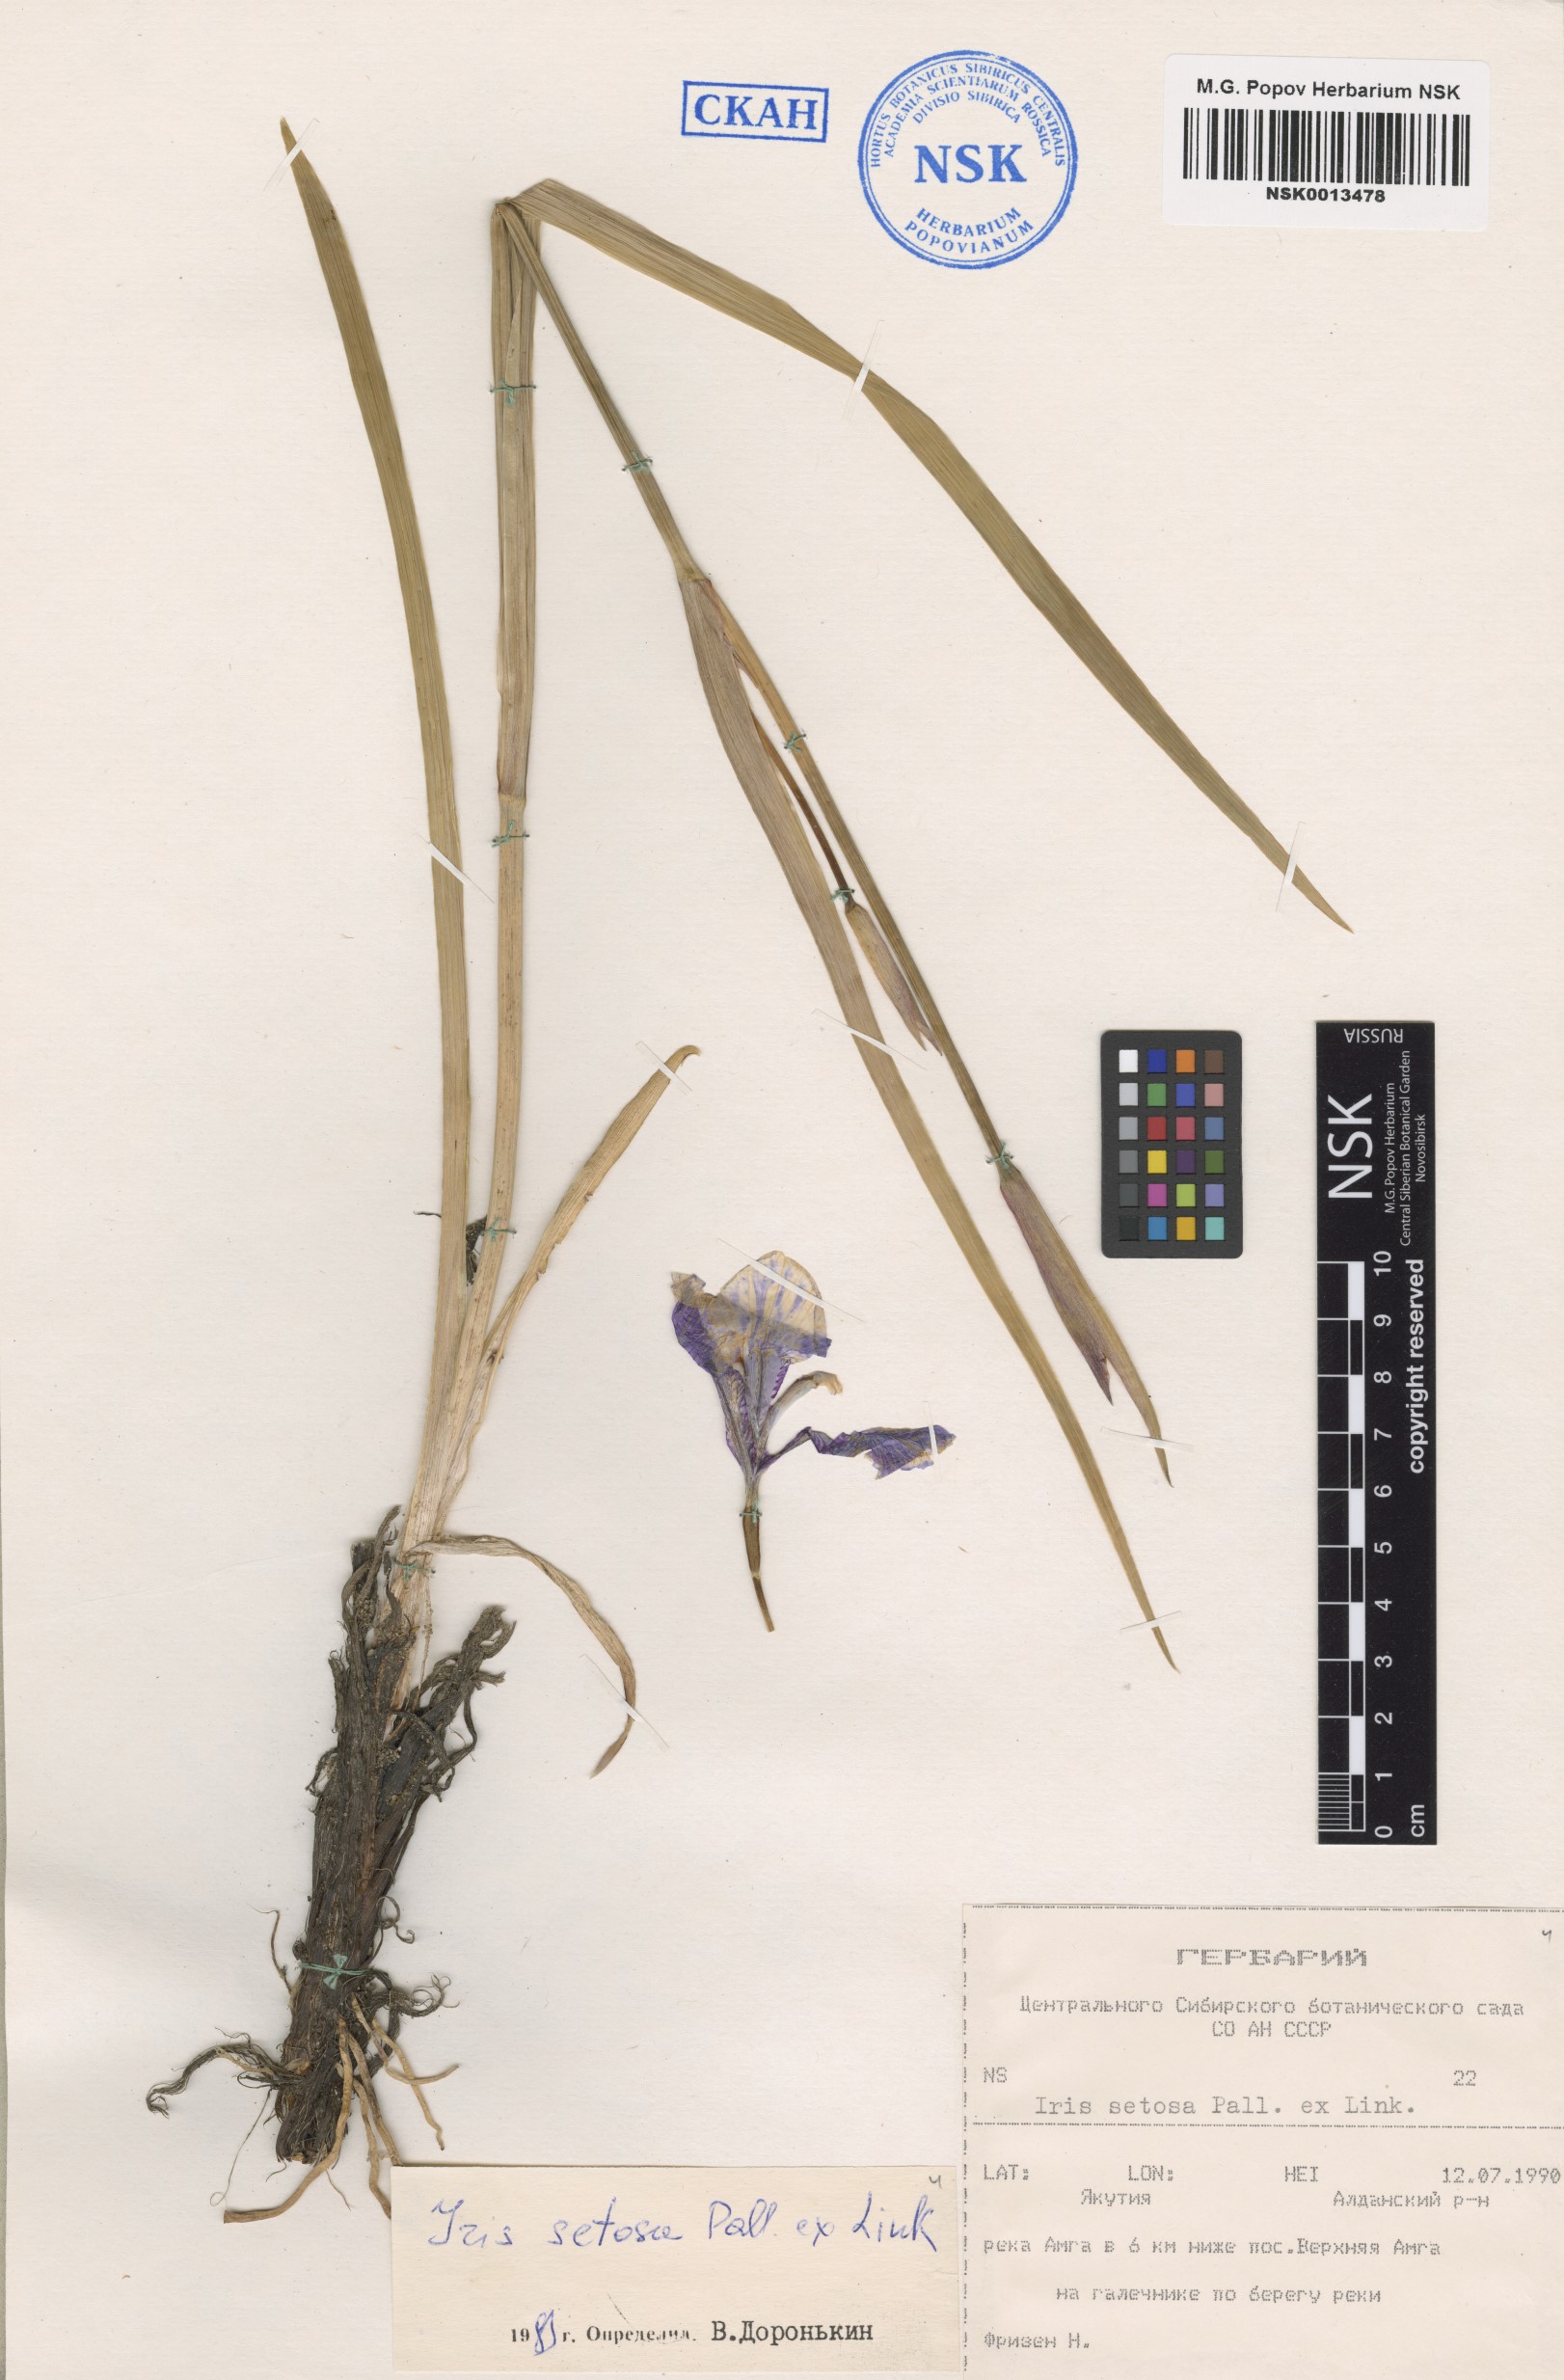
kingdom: Plantae
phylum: Tracheophyta
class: Liliopsida
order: Asparagales
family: Iridaceae
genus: Iris
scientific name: Iris setosa
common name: Arctic blue flag
